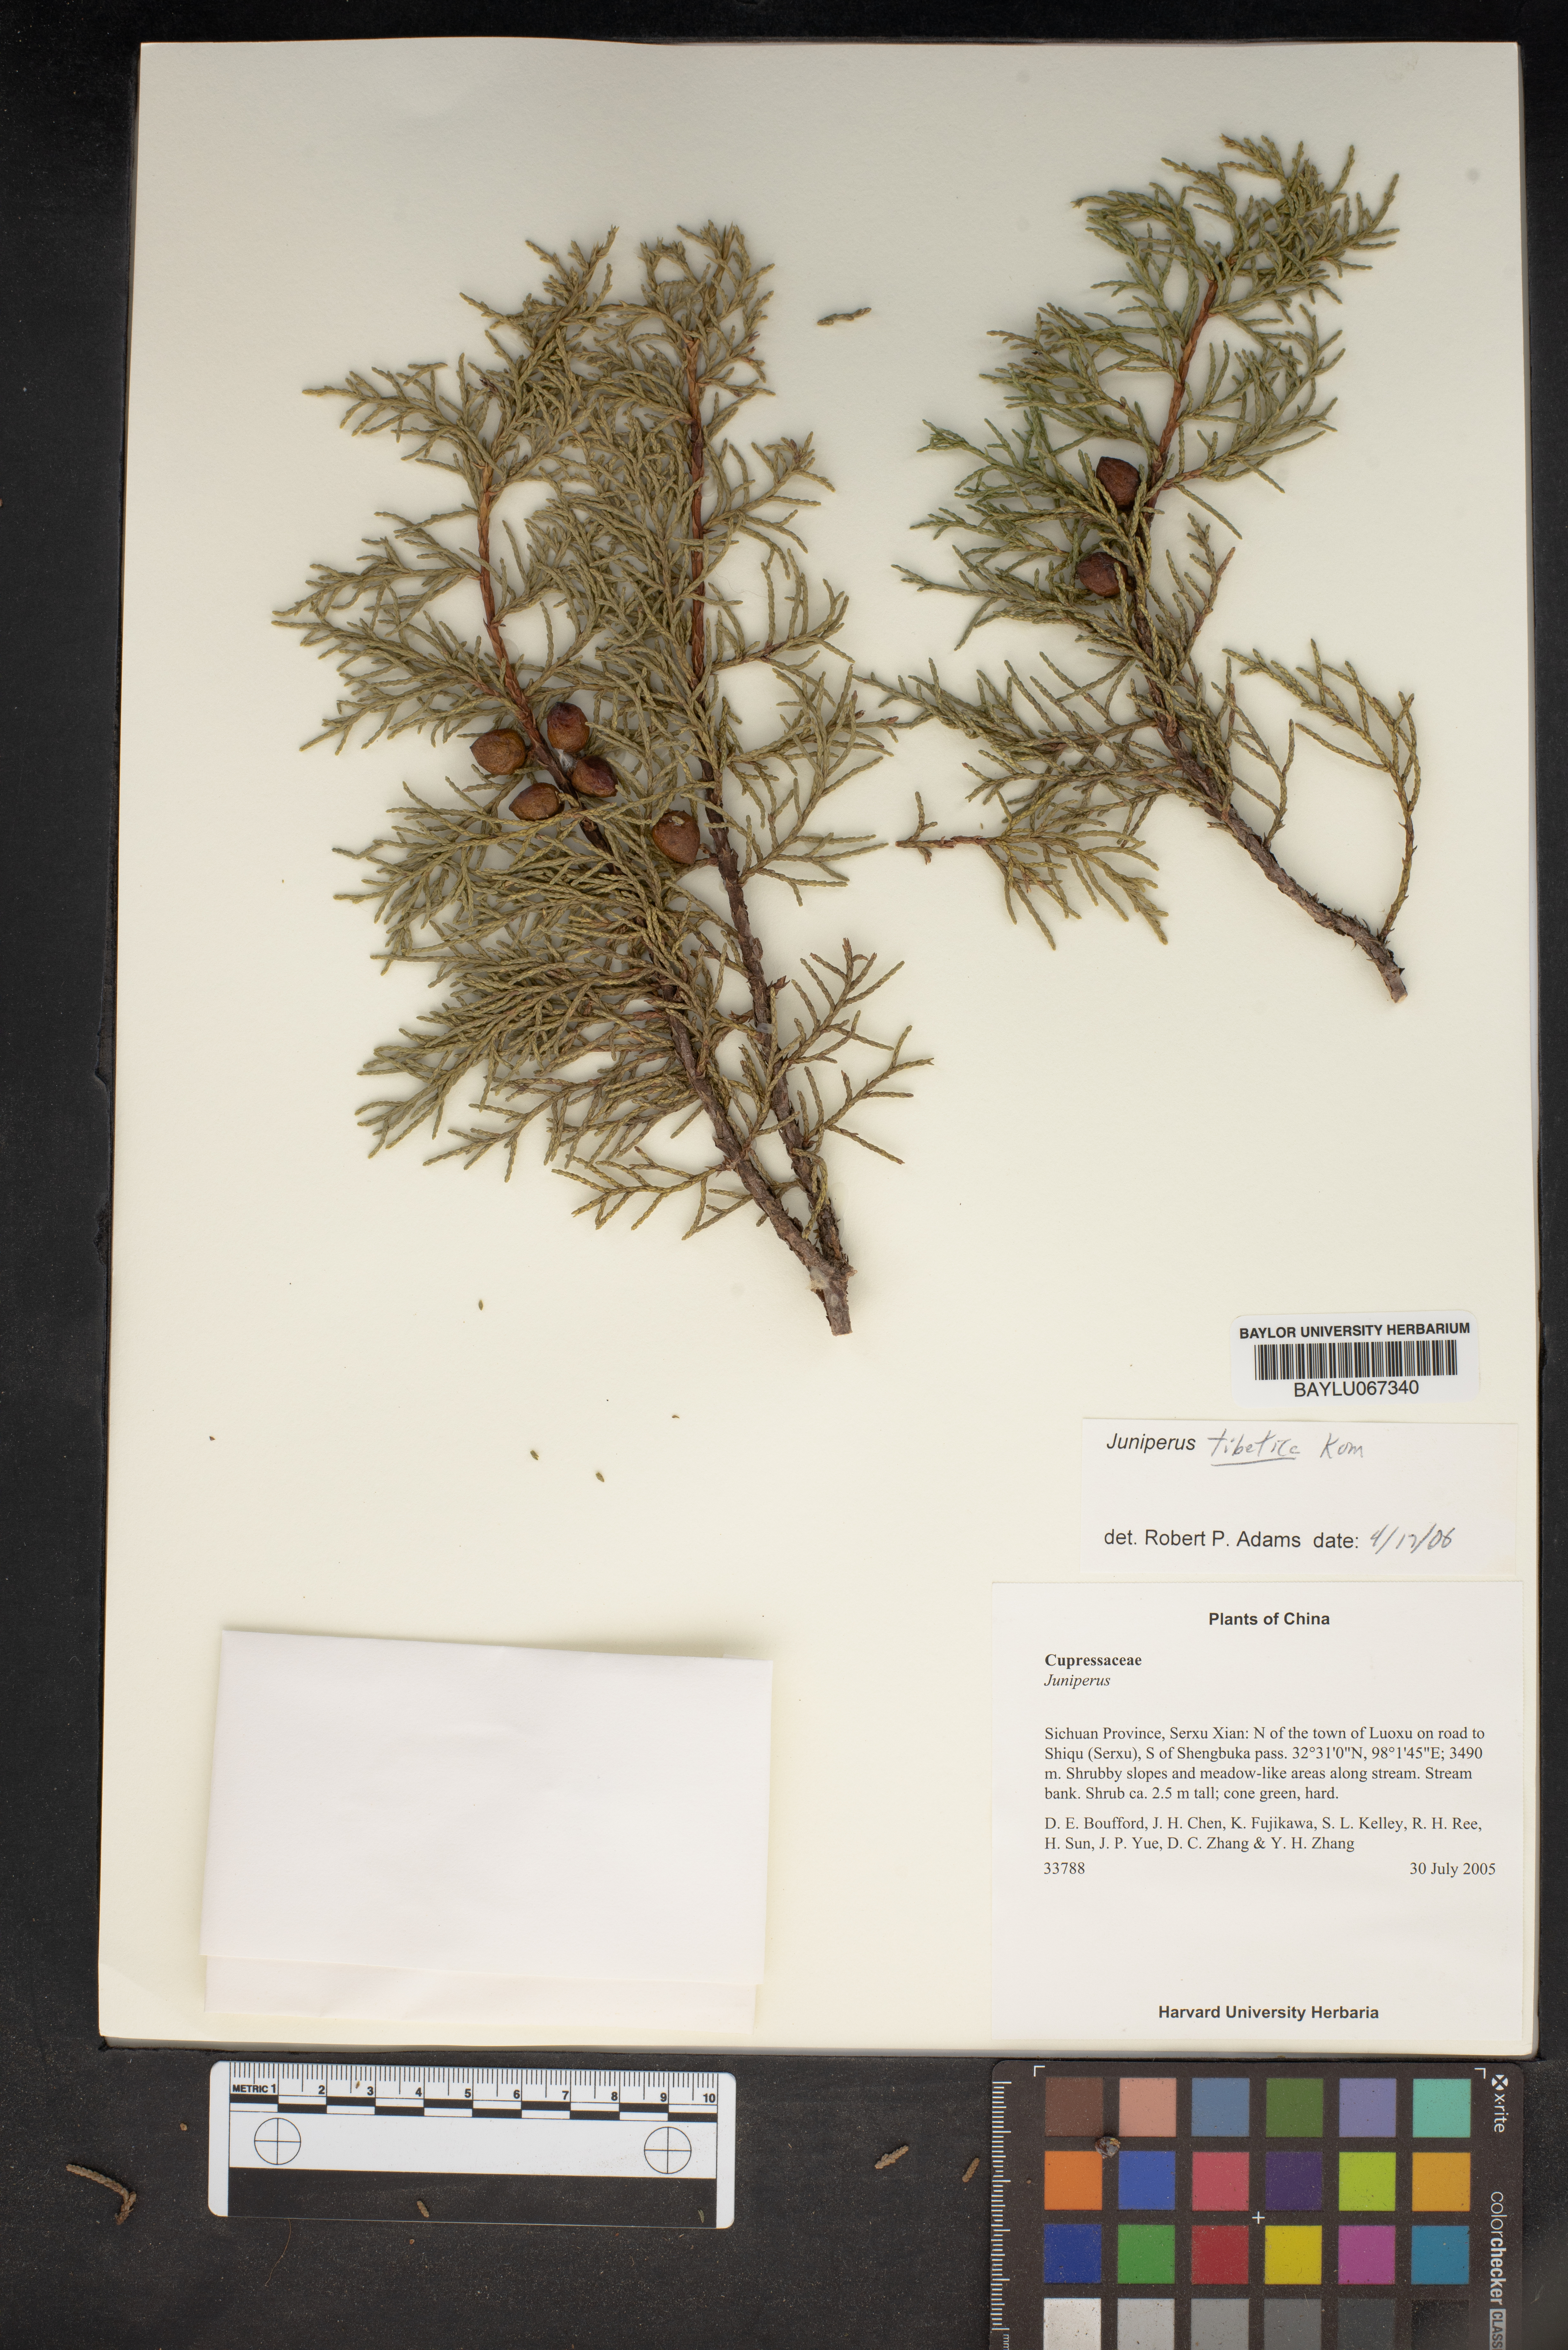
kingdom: Plantae
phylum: Tracheophyta
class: Pinopsida
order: Pinales
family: Cupressaceae
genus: Juniperus
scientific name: Juniperus tibetica
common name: Tibetan juniper
